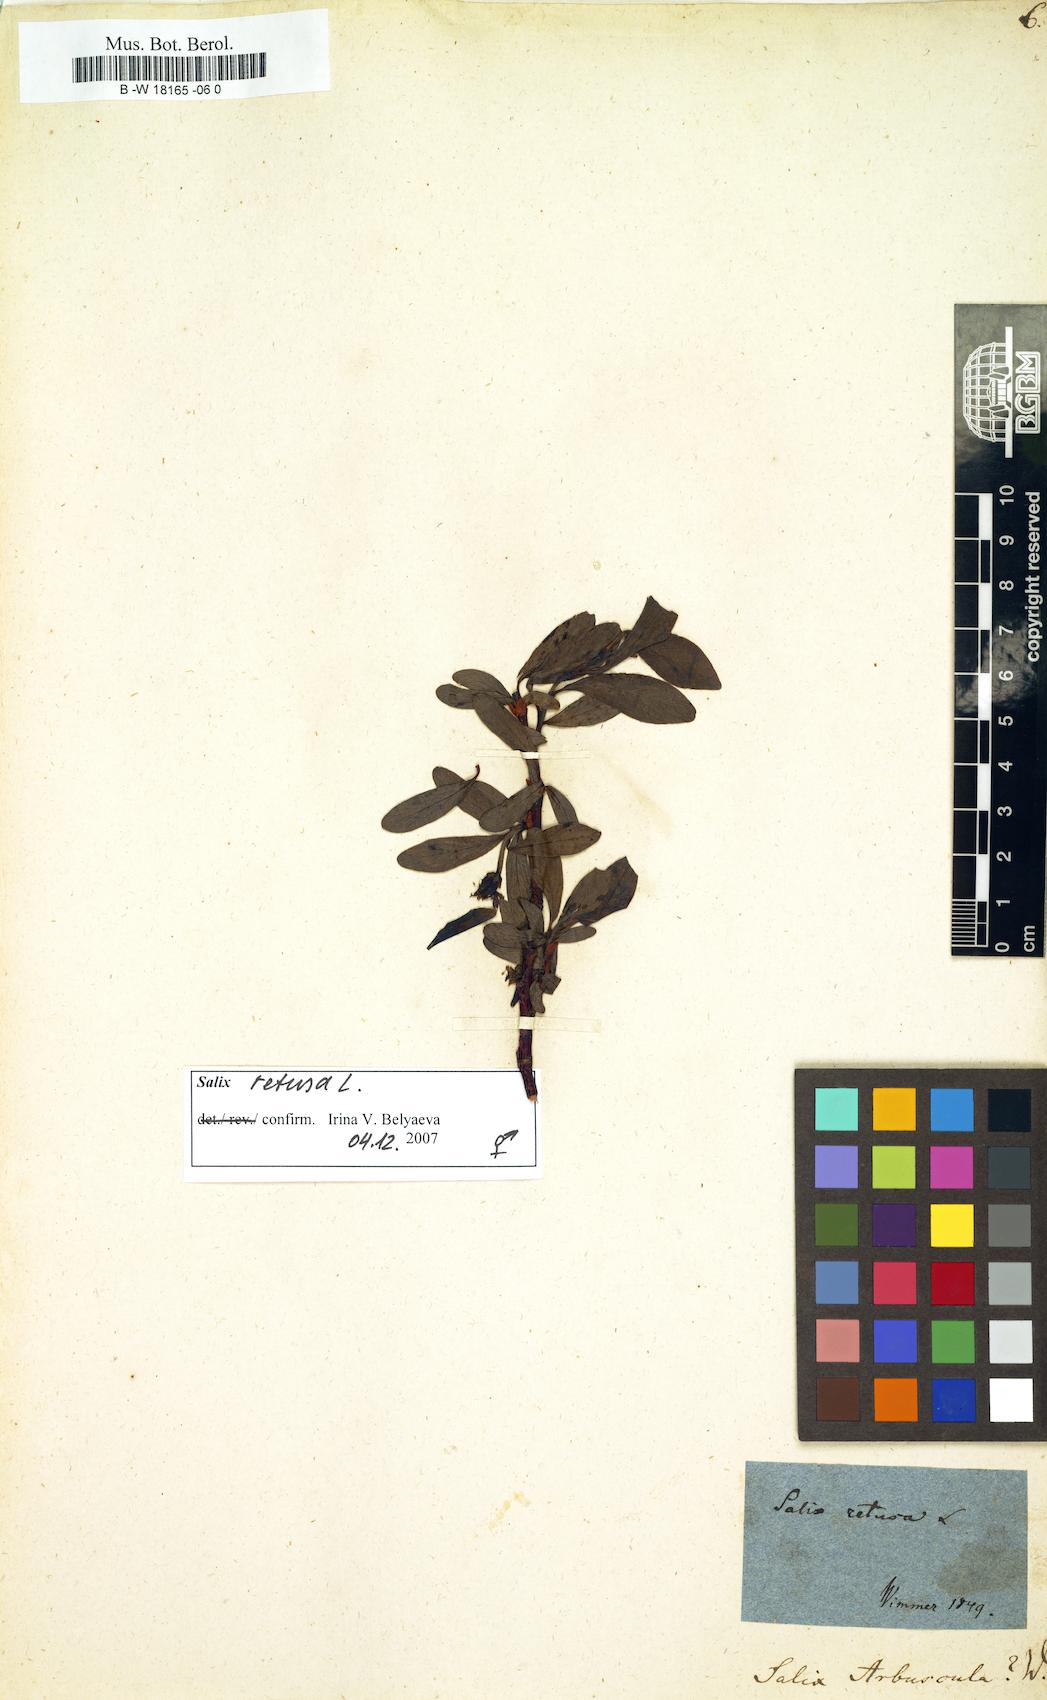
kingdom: Plantae
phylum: Tracheophyta
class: Magnoliopsida
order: Malpighiales
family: Salicaceae
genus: Salix
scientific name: Salix arbuscula
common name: Mountain willow
